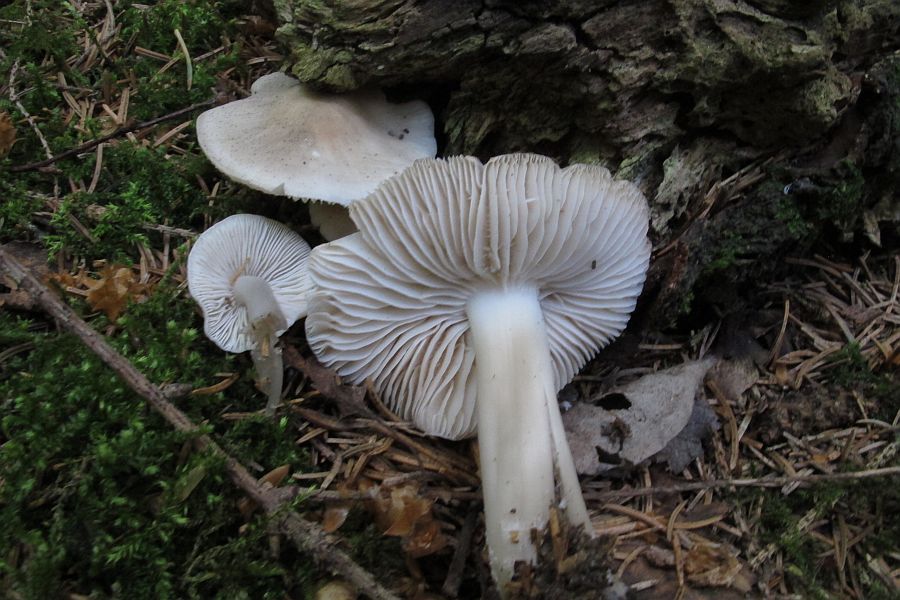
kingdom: Fungi
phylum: Basidiomycota
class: Agaricomycetes
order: Agaricales
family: Mycenaceae
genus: Mycena
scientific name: Mycena galericulata
